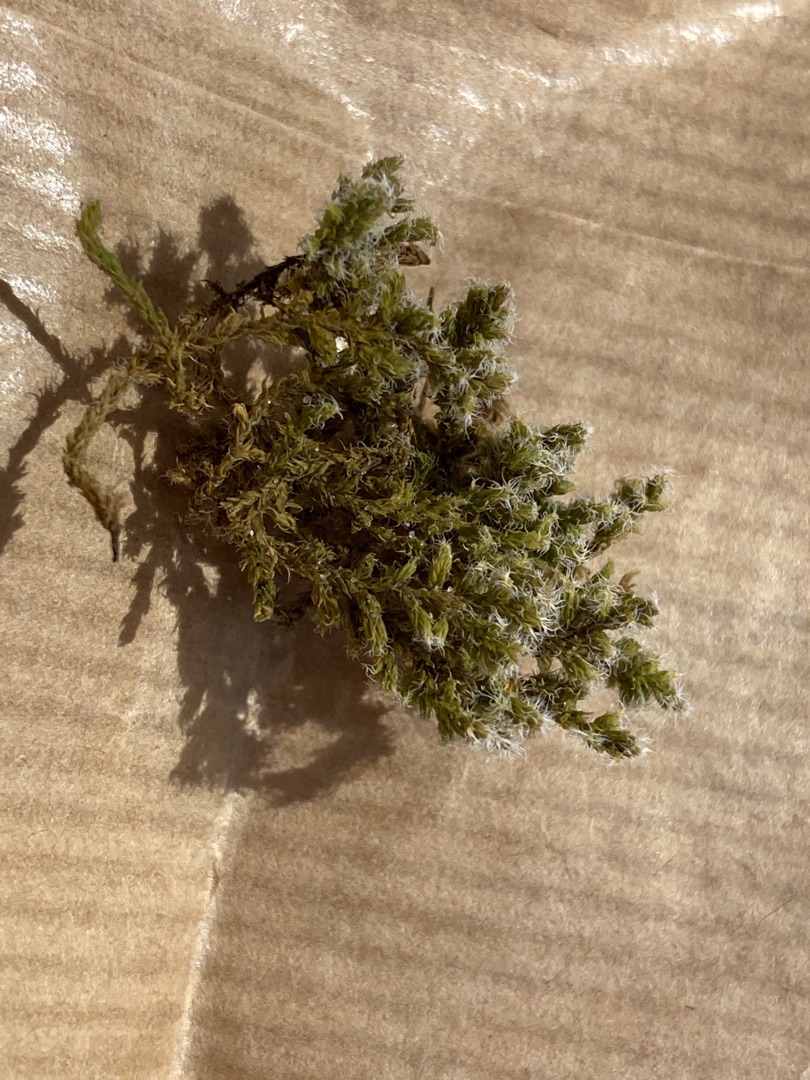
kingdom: Plantae
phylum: Bryophyta
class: Bryopsida
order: Grimmiales
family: Grimmiaceae
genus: Niphotrichum
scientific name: Niphotrichum elongatum
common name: Lang børstemos
